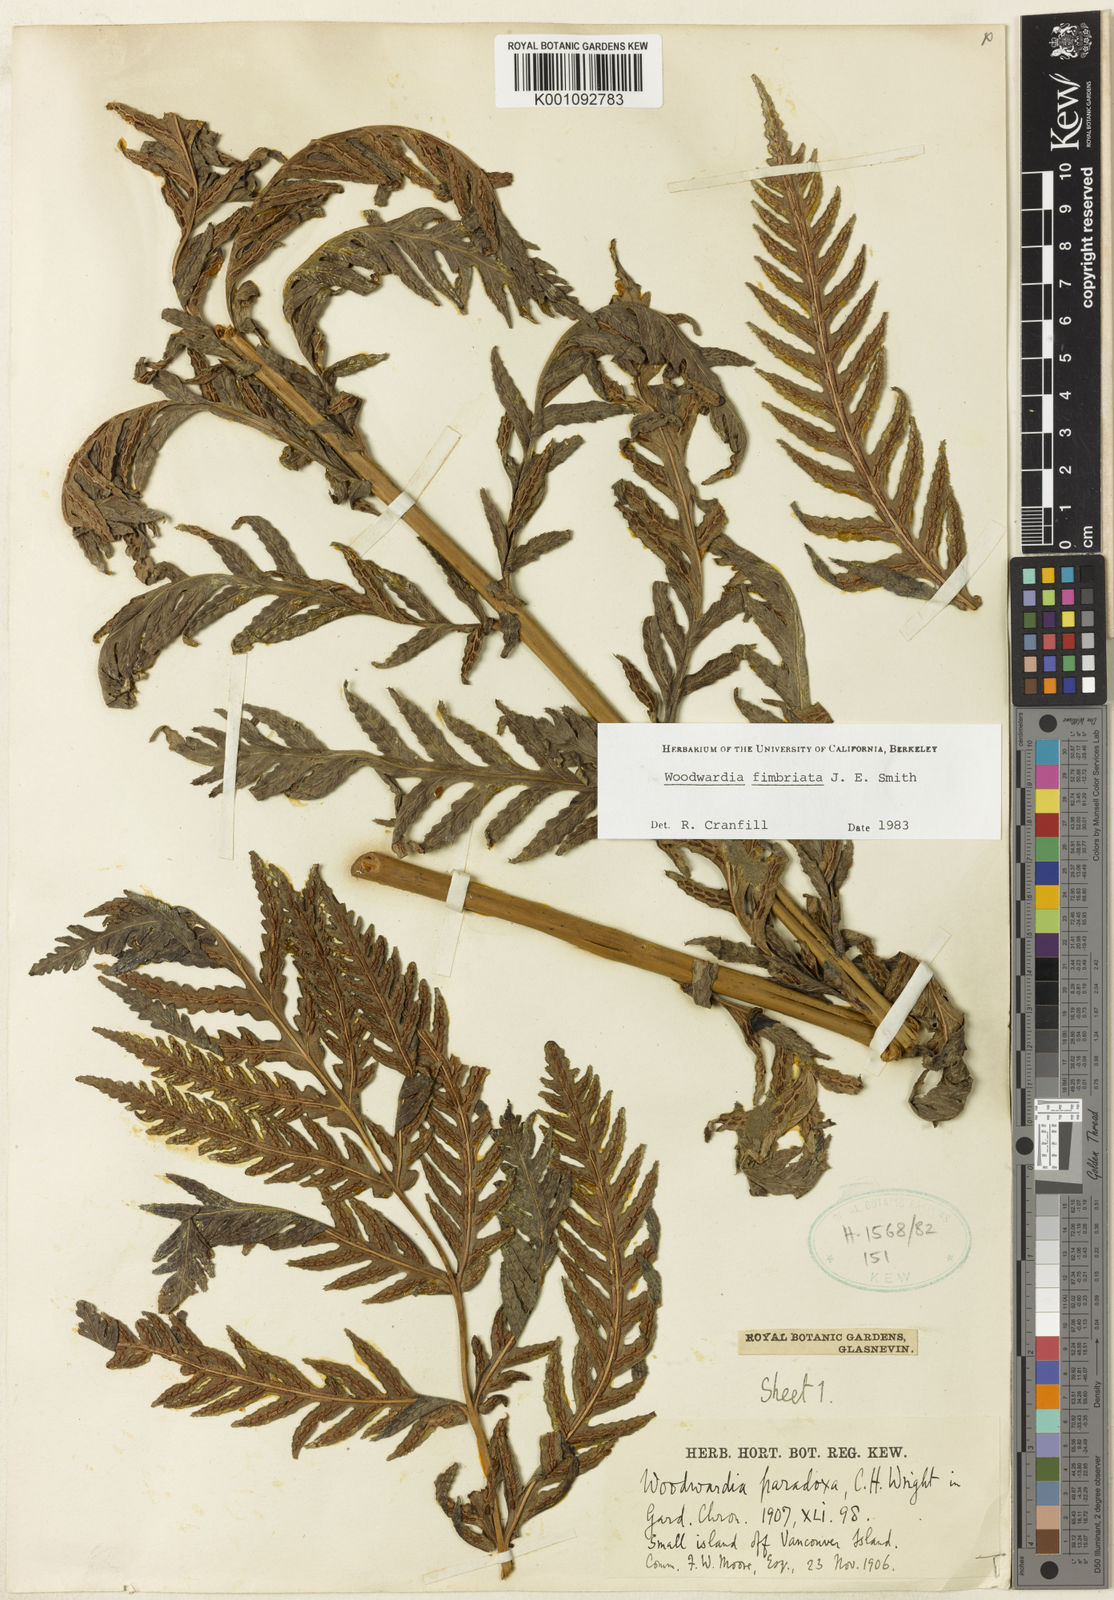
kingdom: Plantae
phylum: Tracheophyta
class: Polypodiopsida
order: Polypodiales
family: Blechnaceae
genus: Woodwardia
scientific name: Woodwardia fimbriata
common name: Giant chain fern
